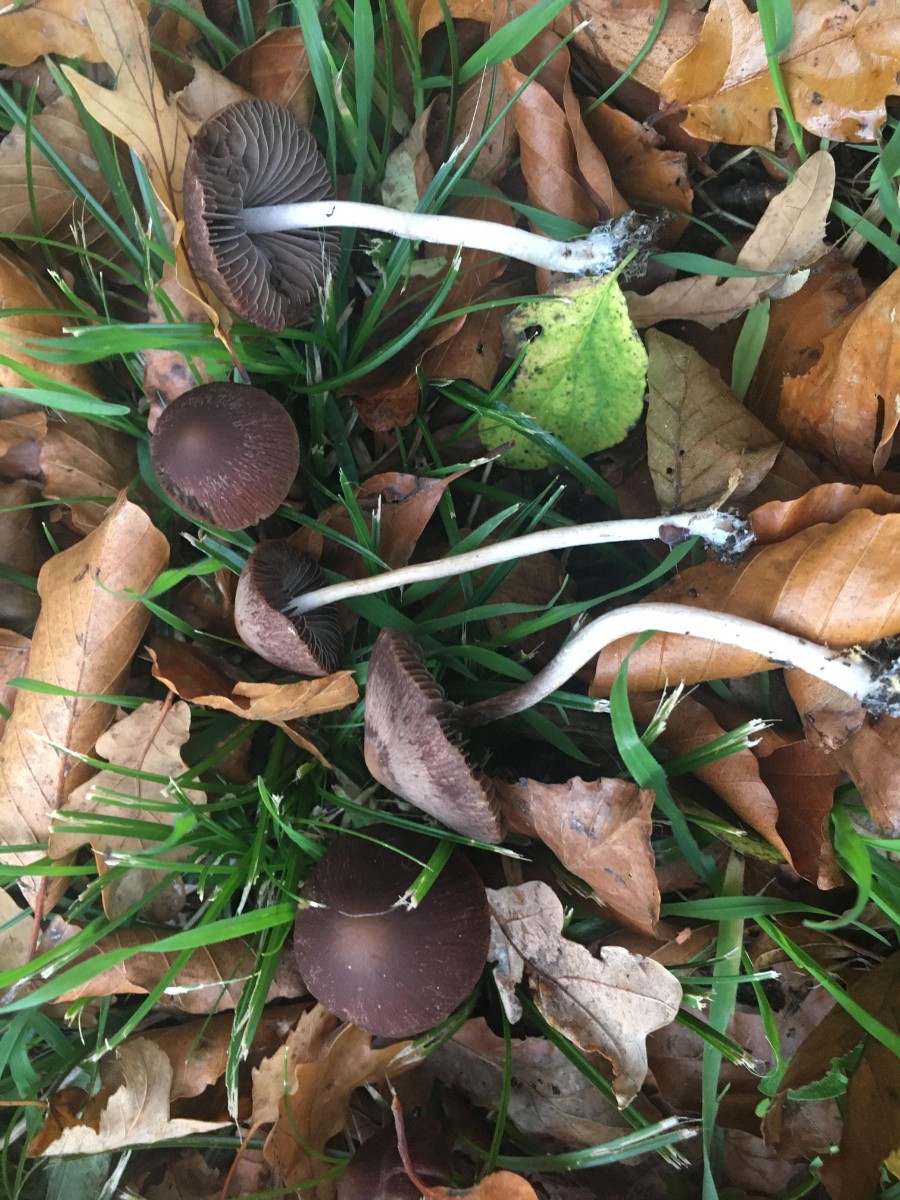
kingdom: Fungi
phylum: Basidiomycota
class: Agaricomycetes
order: Agaricales
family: Psathyrellaceae
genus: Psathyrella
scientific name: Psathyrella bipellis
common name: vinrød mørkhat
